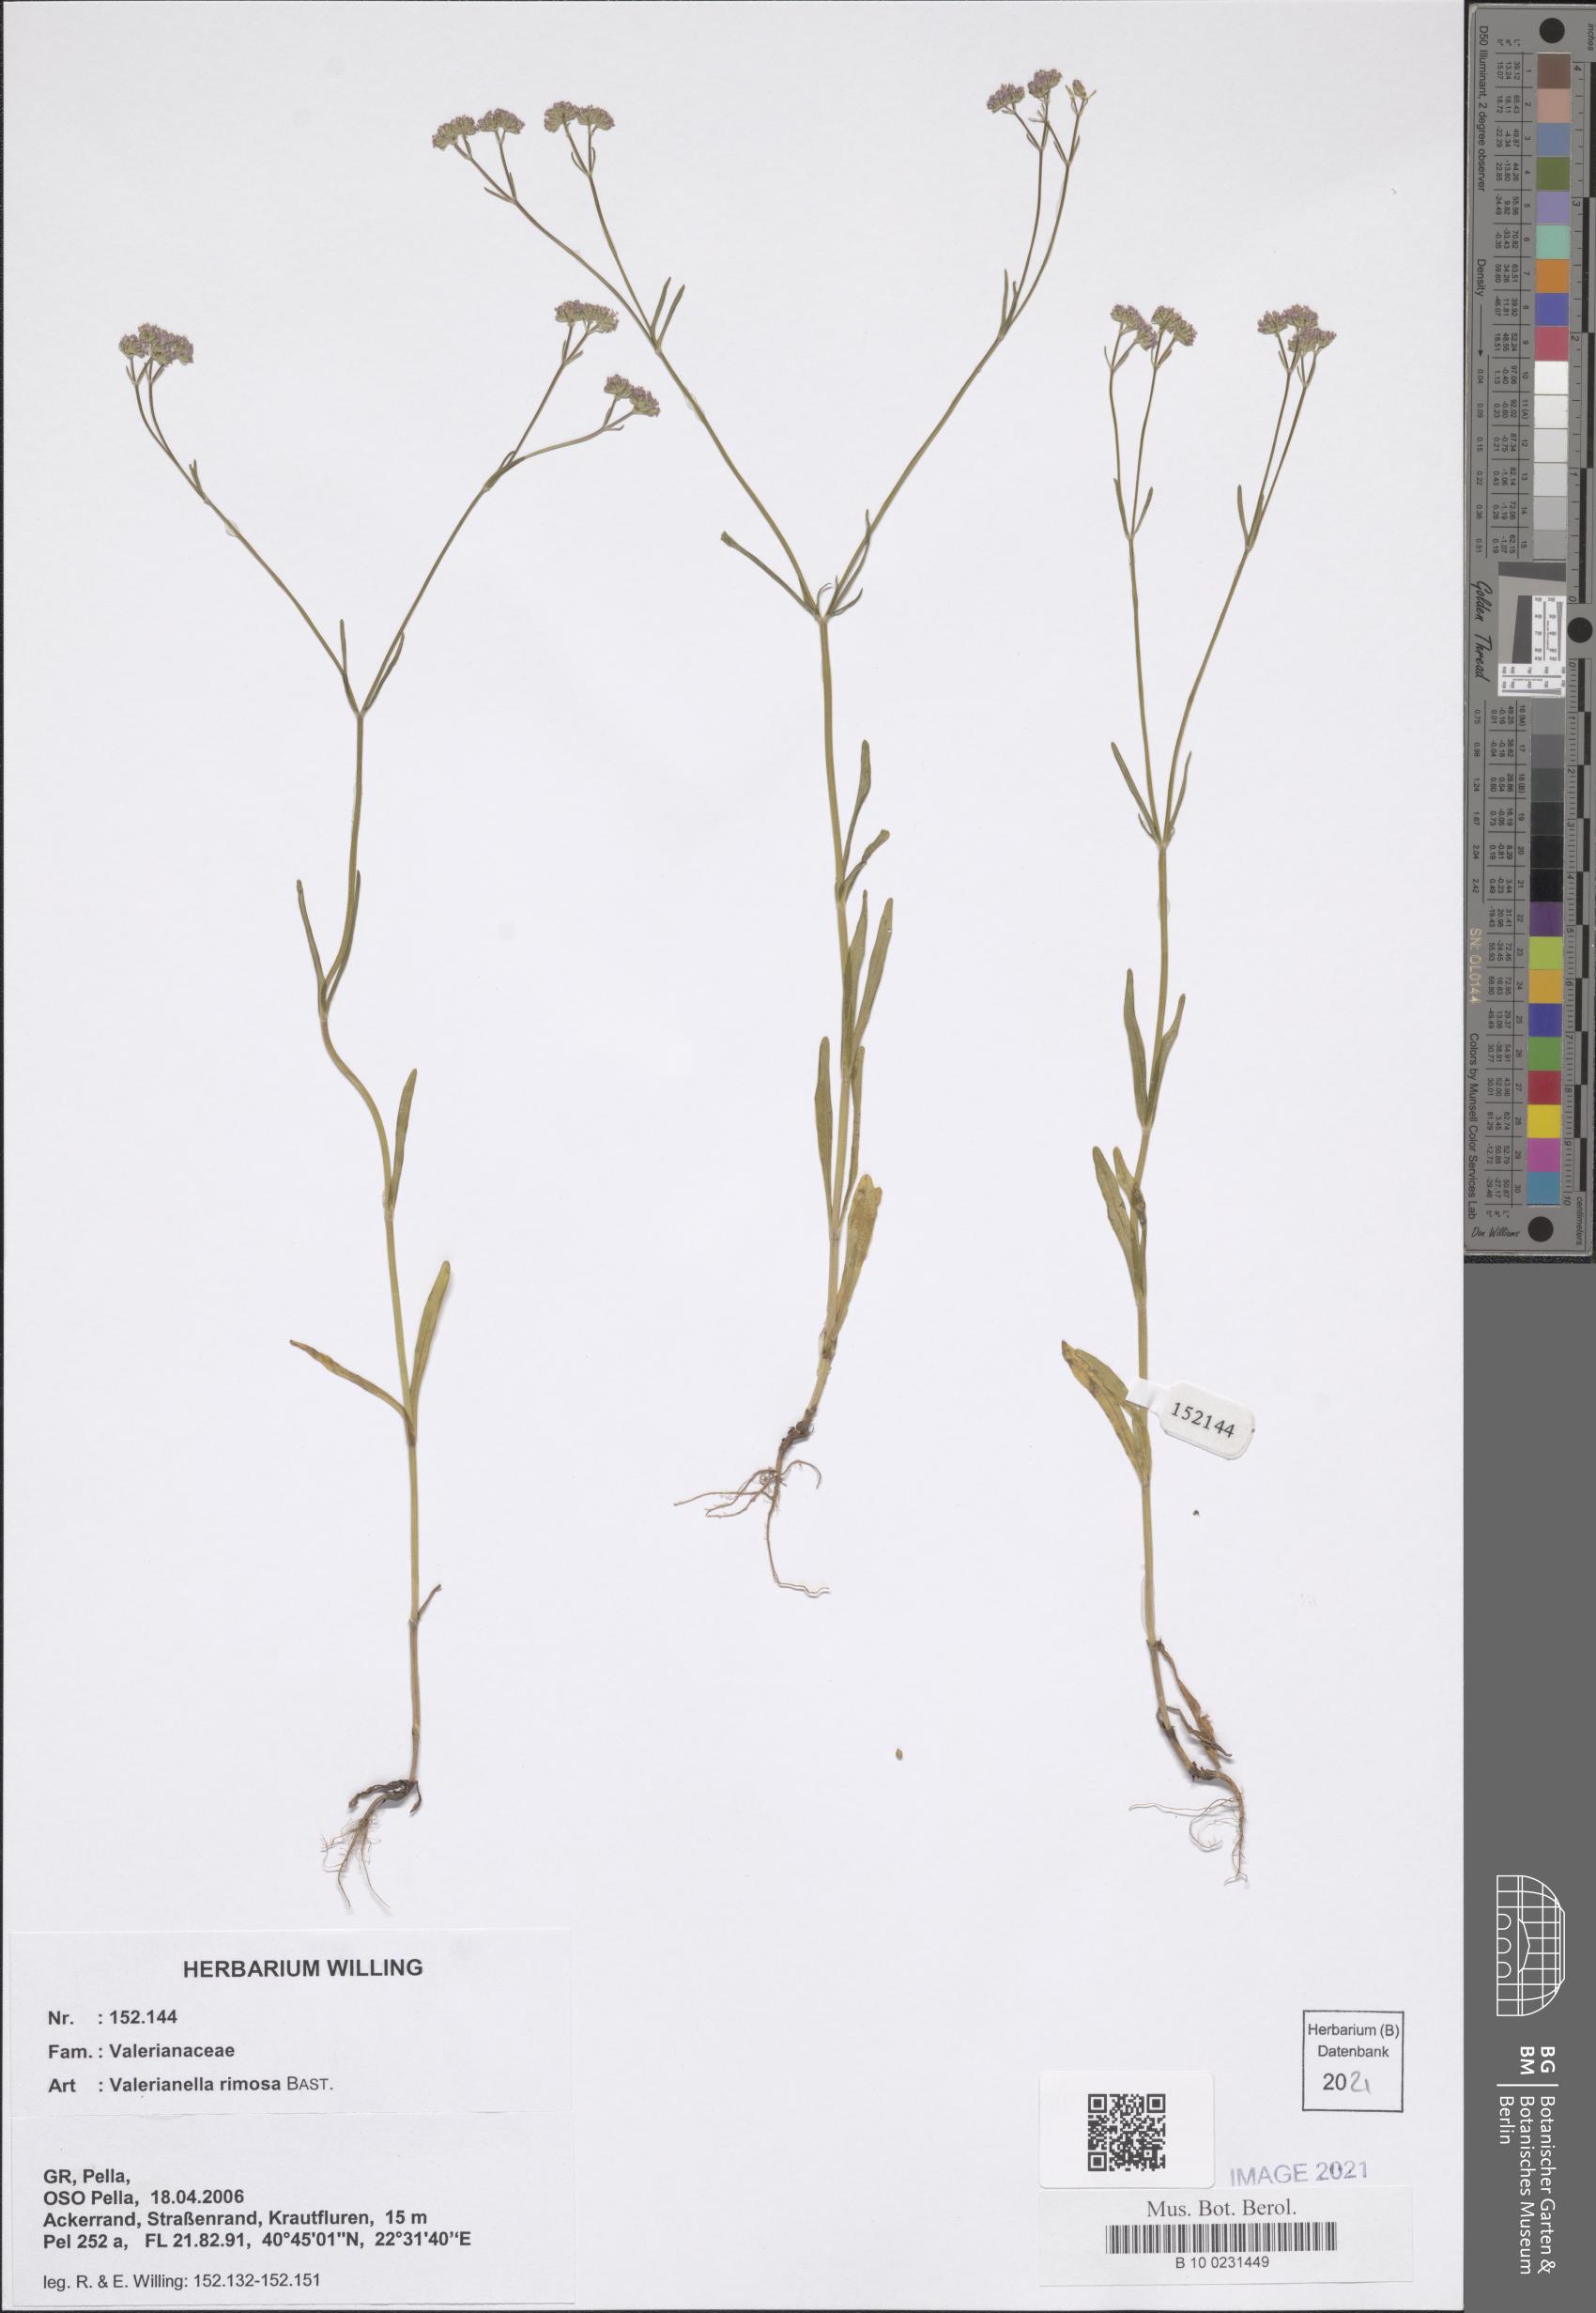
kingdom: Plantae
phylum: Tracheophyta
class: Magnoliopsida
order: Dipsacales
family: Caprifoliaceae
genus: Valerianella
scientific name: Valerianella rimosa
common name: Broad-fruited cornsalad
